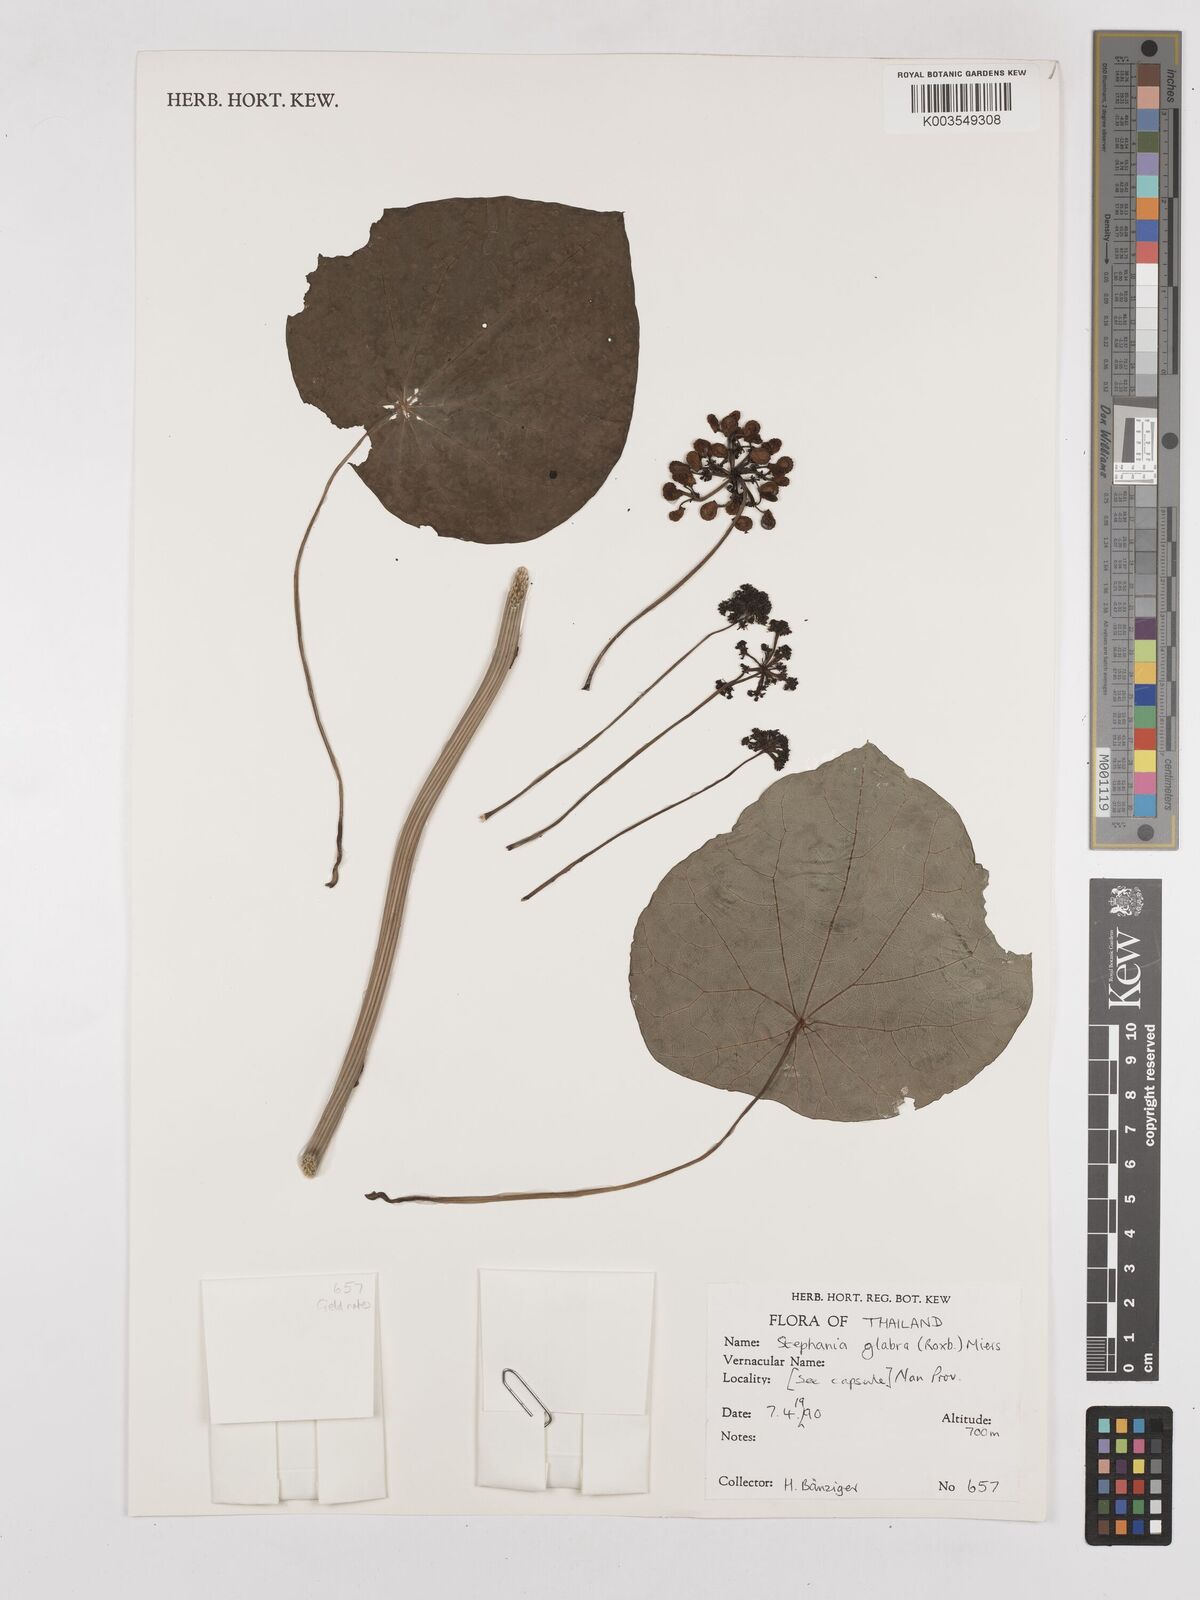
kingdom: Plantae
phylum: Tracheophyta
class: Magnoliopsida
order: Ranunculales
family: Menispermaceae
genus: Stephania
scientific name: Stephania rotunda
